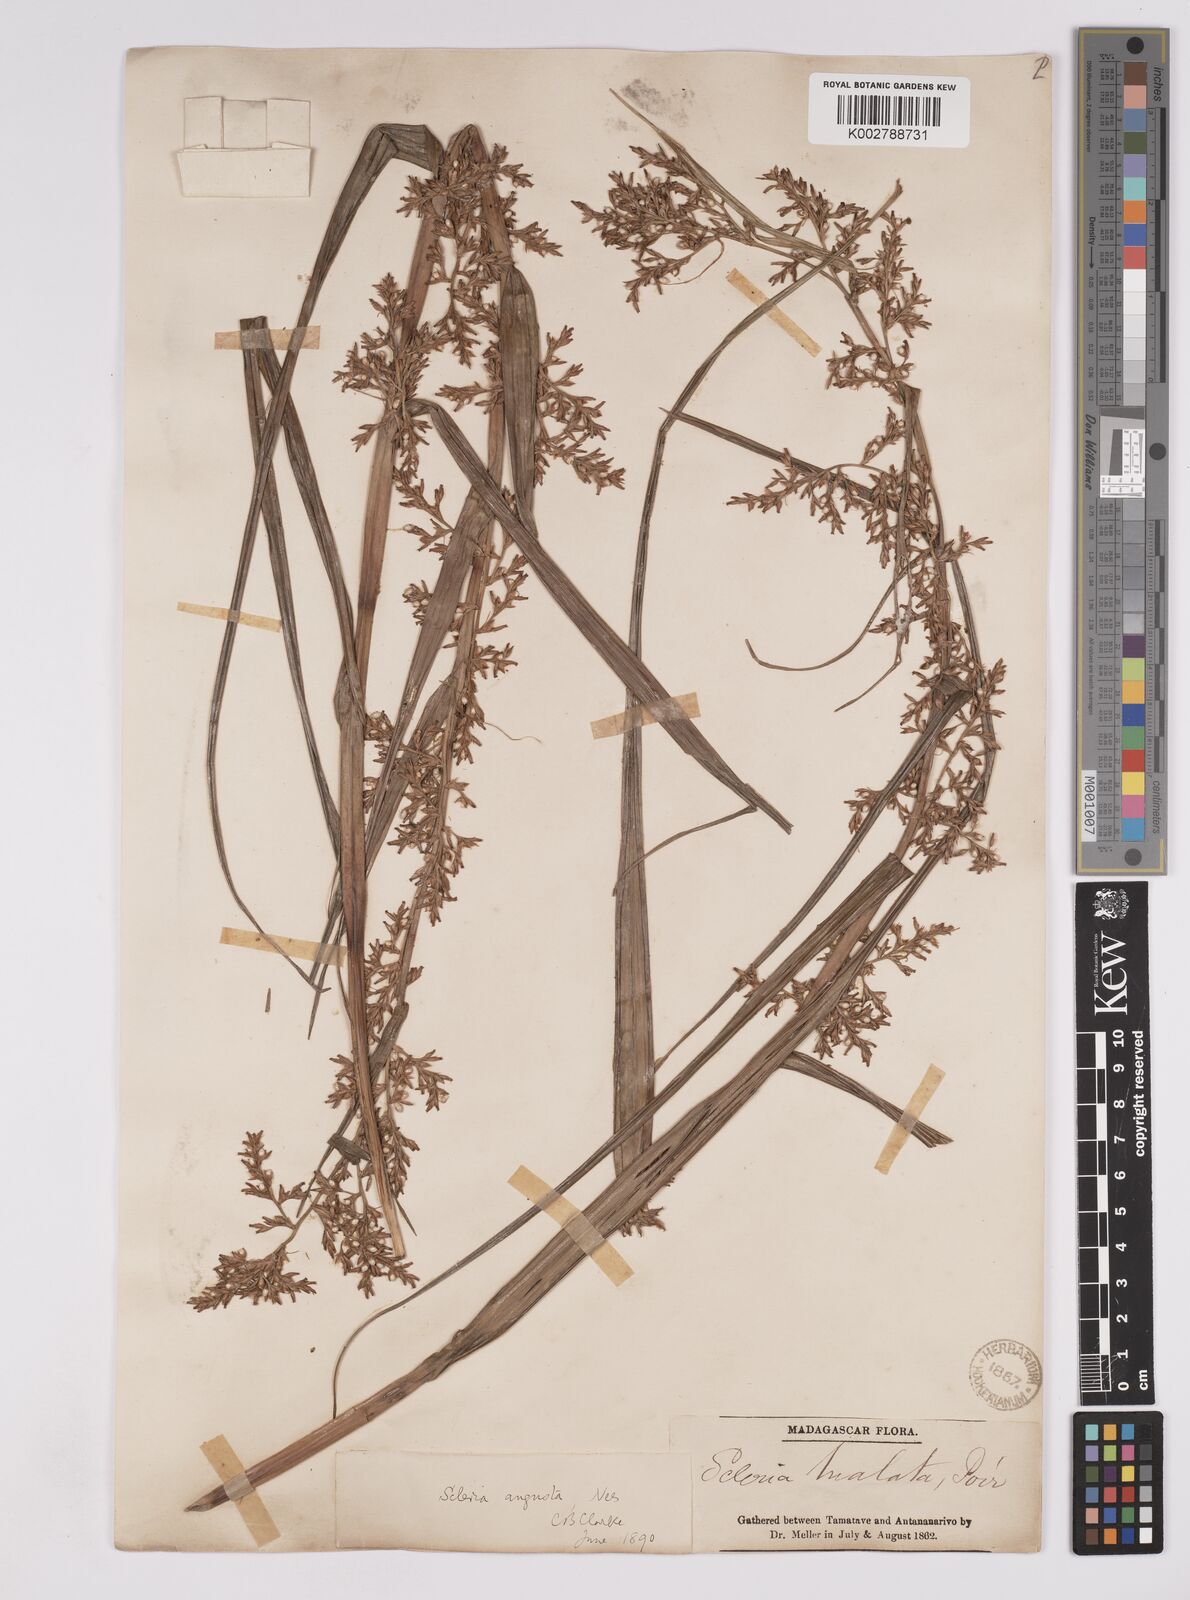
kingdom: Plantae
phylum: Tracheophyta
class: Liliopsida
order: Poales
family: Cyperaceae
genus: Scleria
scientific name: Scleria angusta
